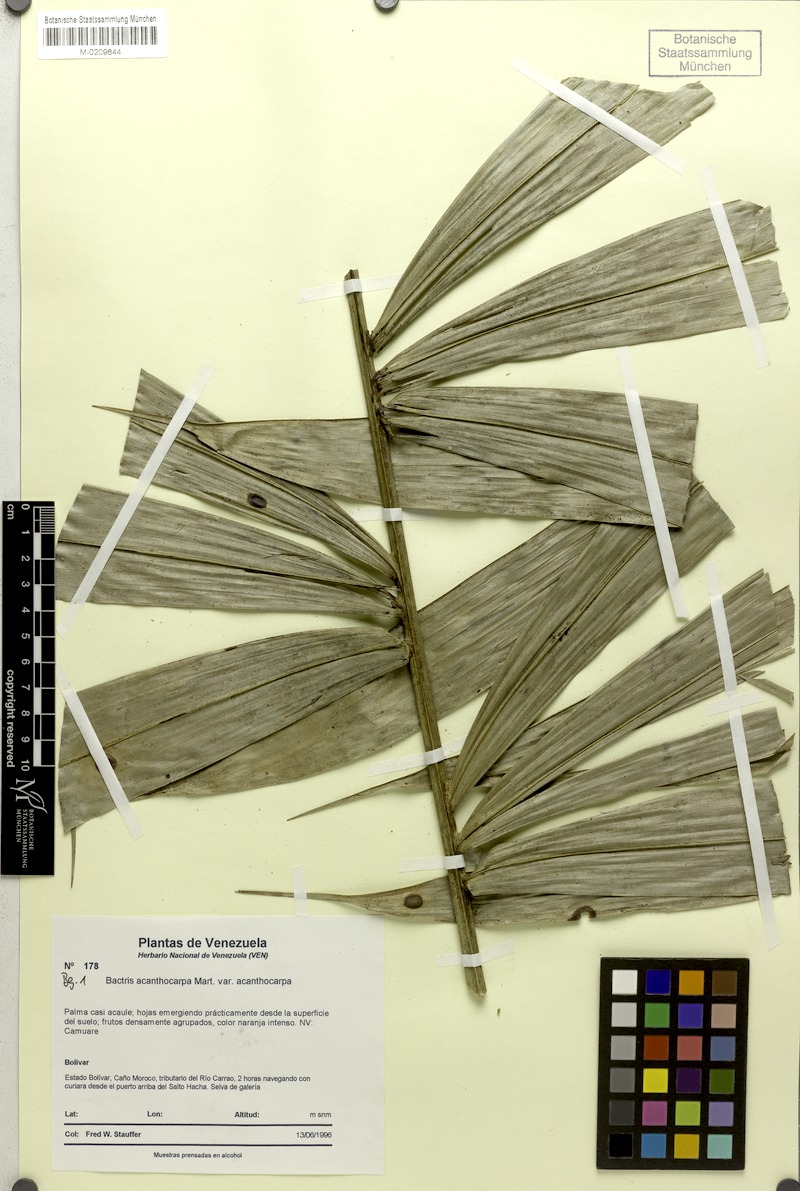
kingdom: Plantae
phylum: Tracheophyta
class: Liliopsida
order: Arecales
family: Arecaceae
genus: Bactris
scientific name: Bactris acanthocarpa
